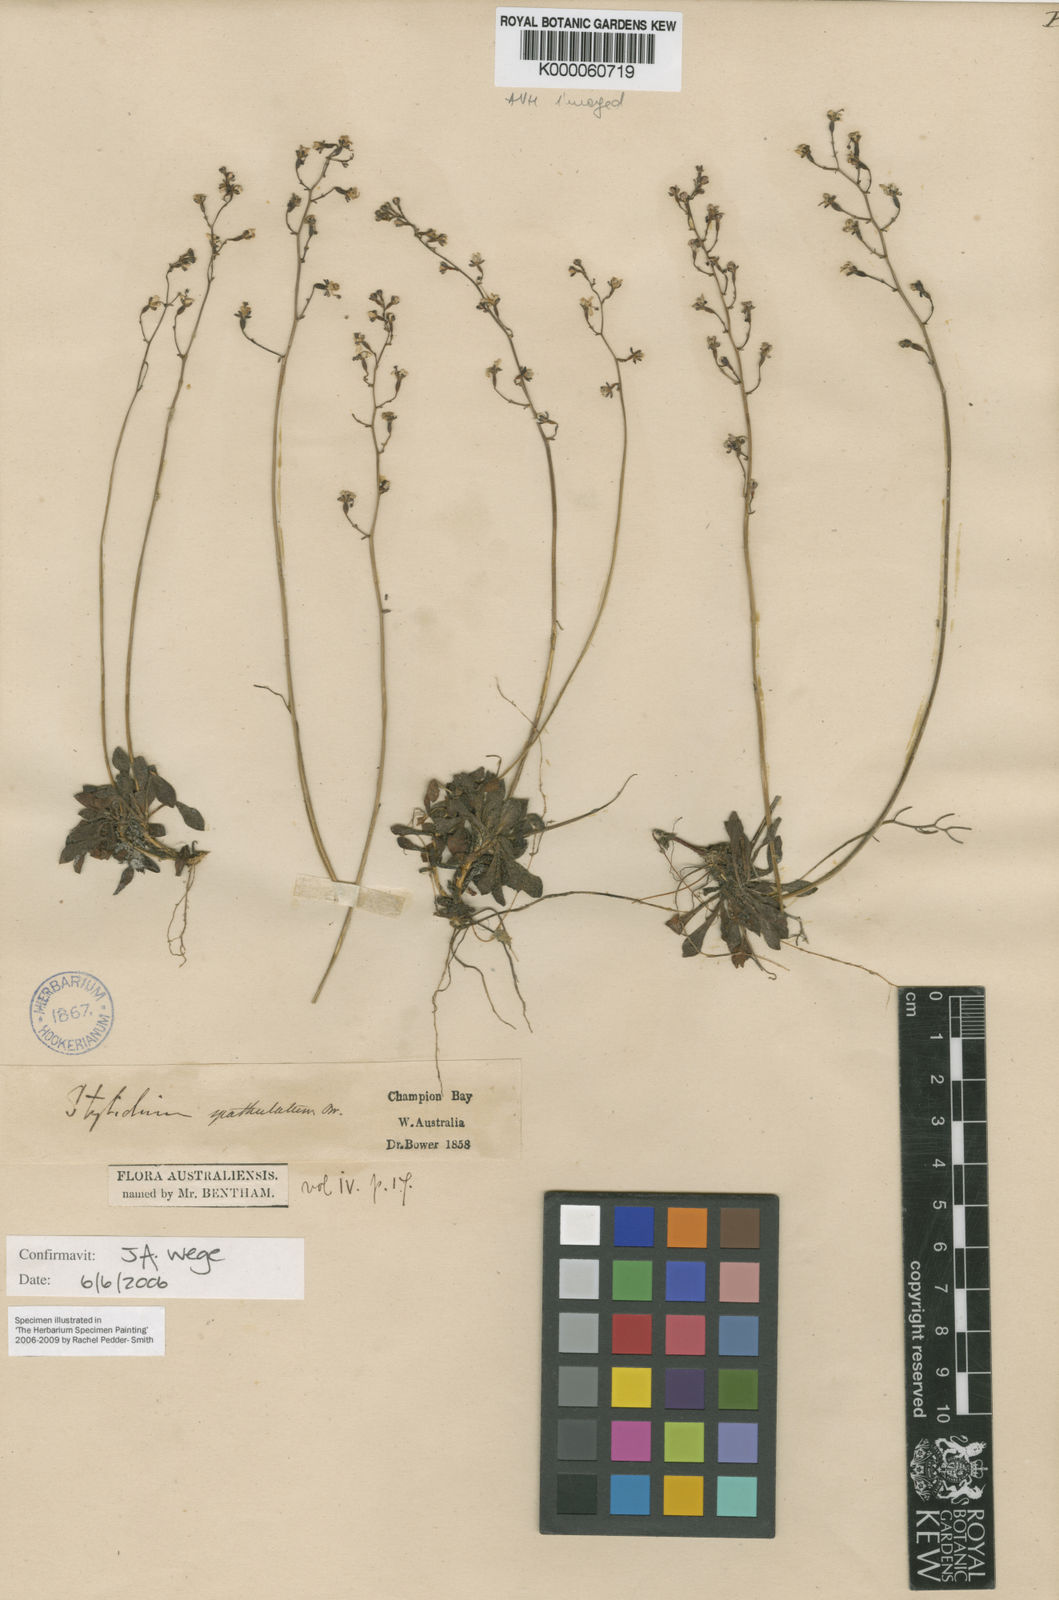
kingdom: Plantae
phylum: Tracheophyta
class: Magnoliopsida
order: Asterales
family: Stylidiaceae
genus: Stylidium
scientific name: Stylidium spathulatum
